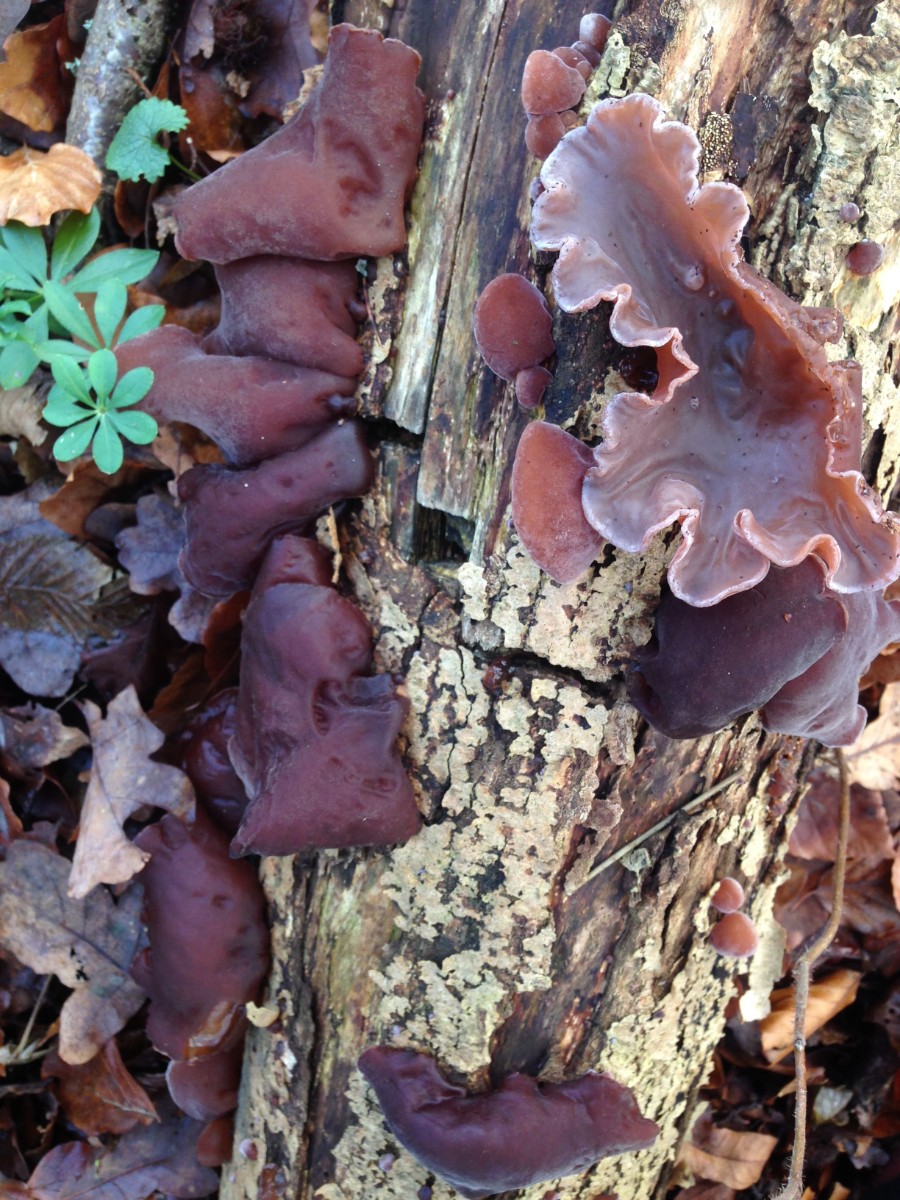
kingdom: Fungi
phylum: Basidiomycota
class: Agaricomycetes
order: Auriculariales
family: Auriculariaceae
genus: Auricularia
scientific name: Auricularia auricula-judae
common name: almindelig judasøre
